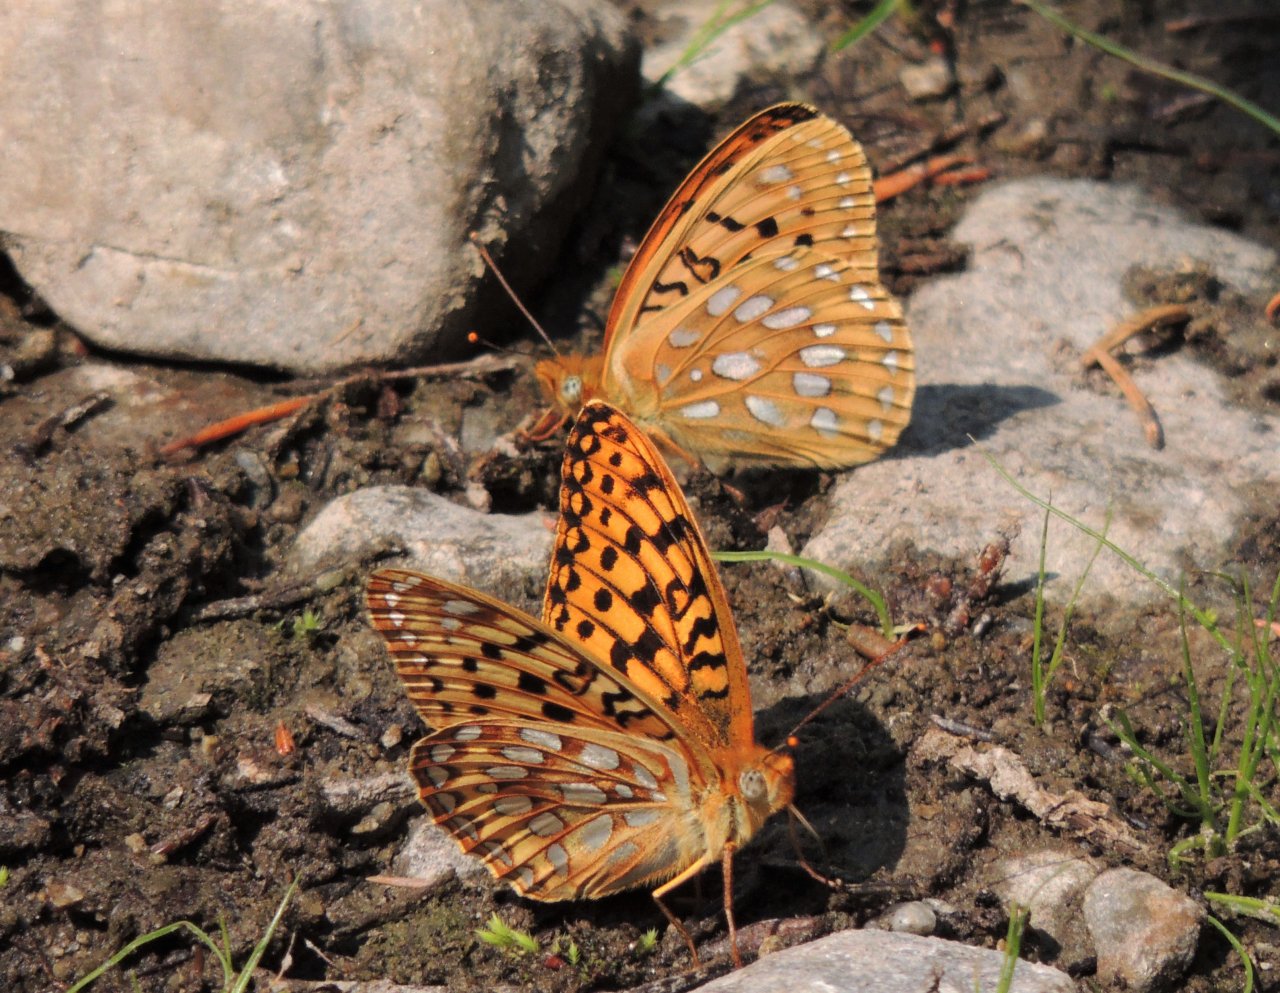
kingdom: Animalia
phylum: Arthropoda
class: Insecta
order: Lepidoptera
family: Nymphalidae
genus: Speyeria
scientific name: Speyeria mormonia
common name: Mormon Fritillary
